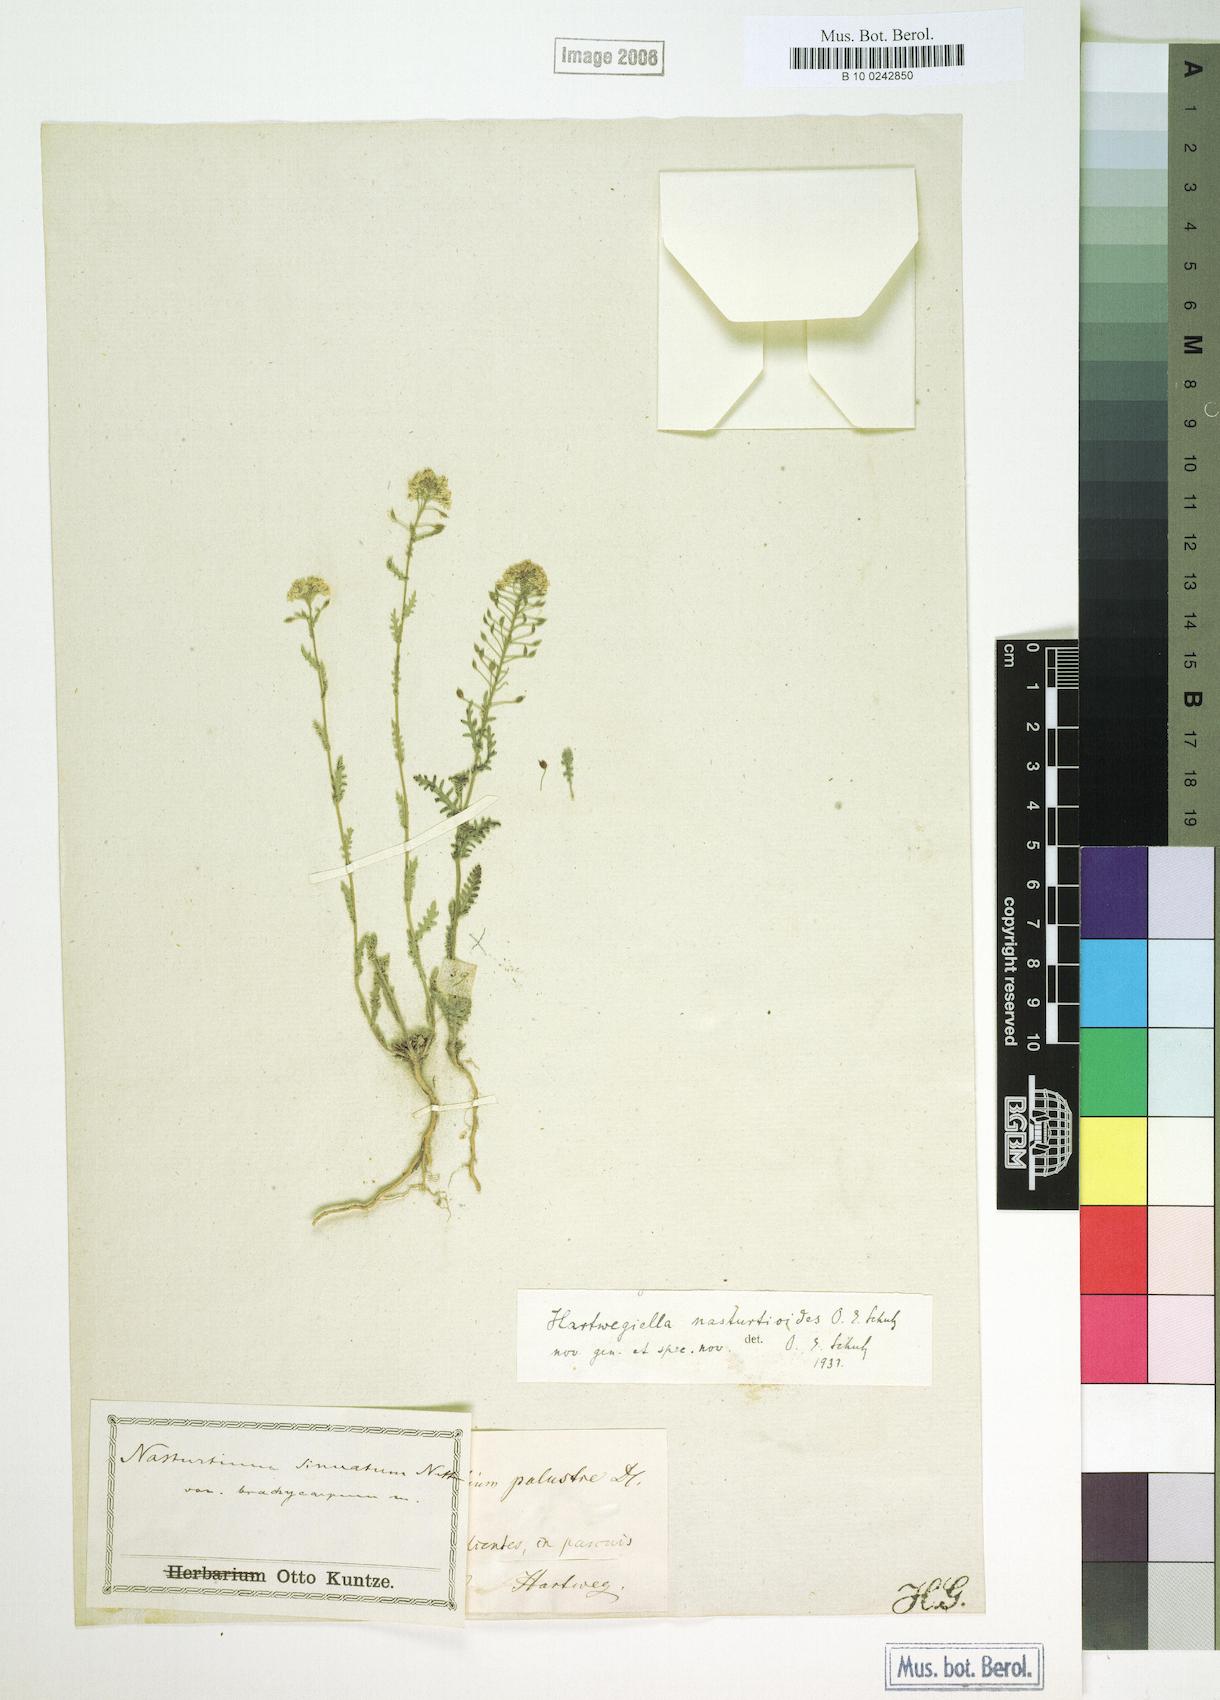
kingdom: Plantae
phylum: Tracheophyta
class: Magnoliopsida
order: Brassicales
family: Brassicaceae
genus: Mancoa
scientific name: Mancoa bracteata
